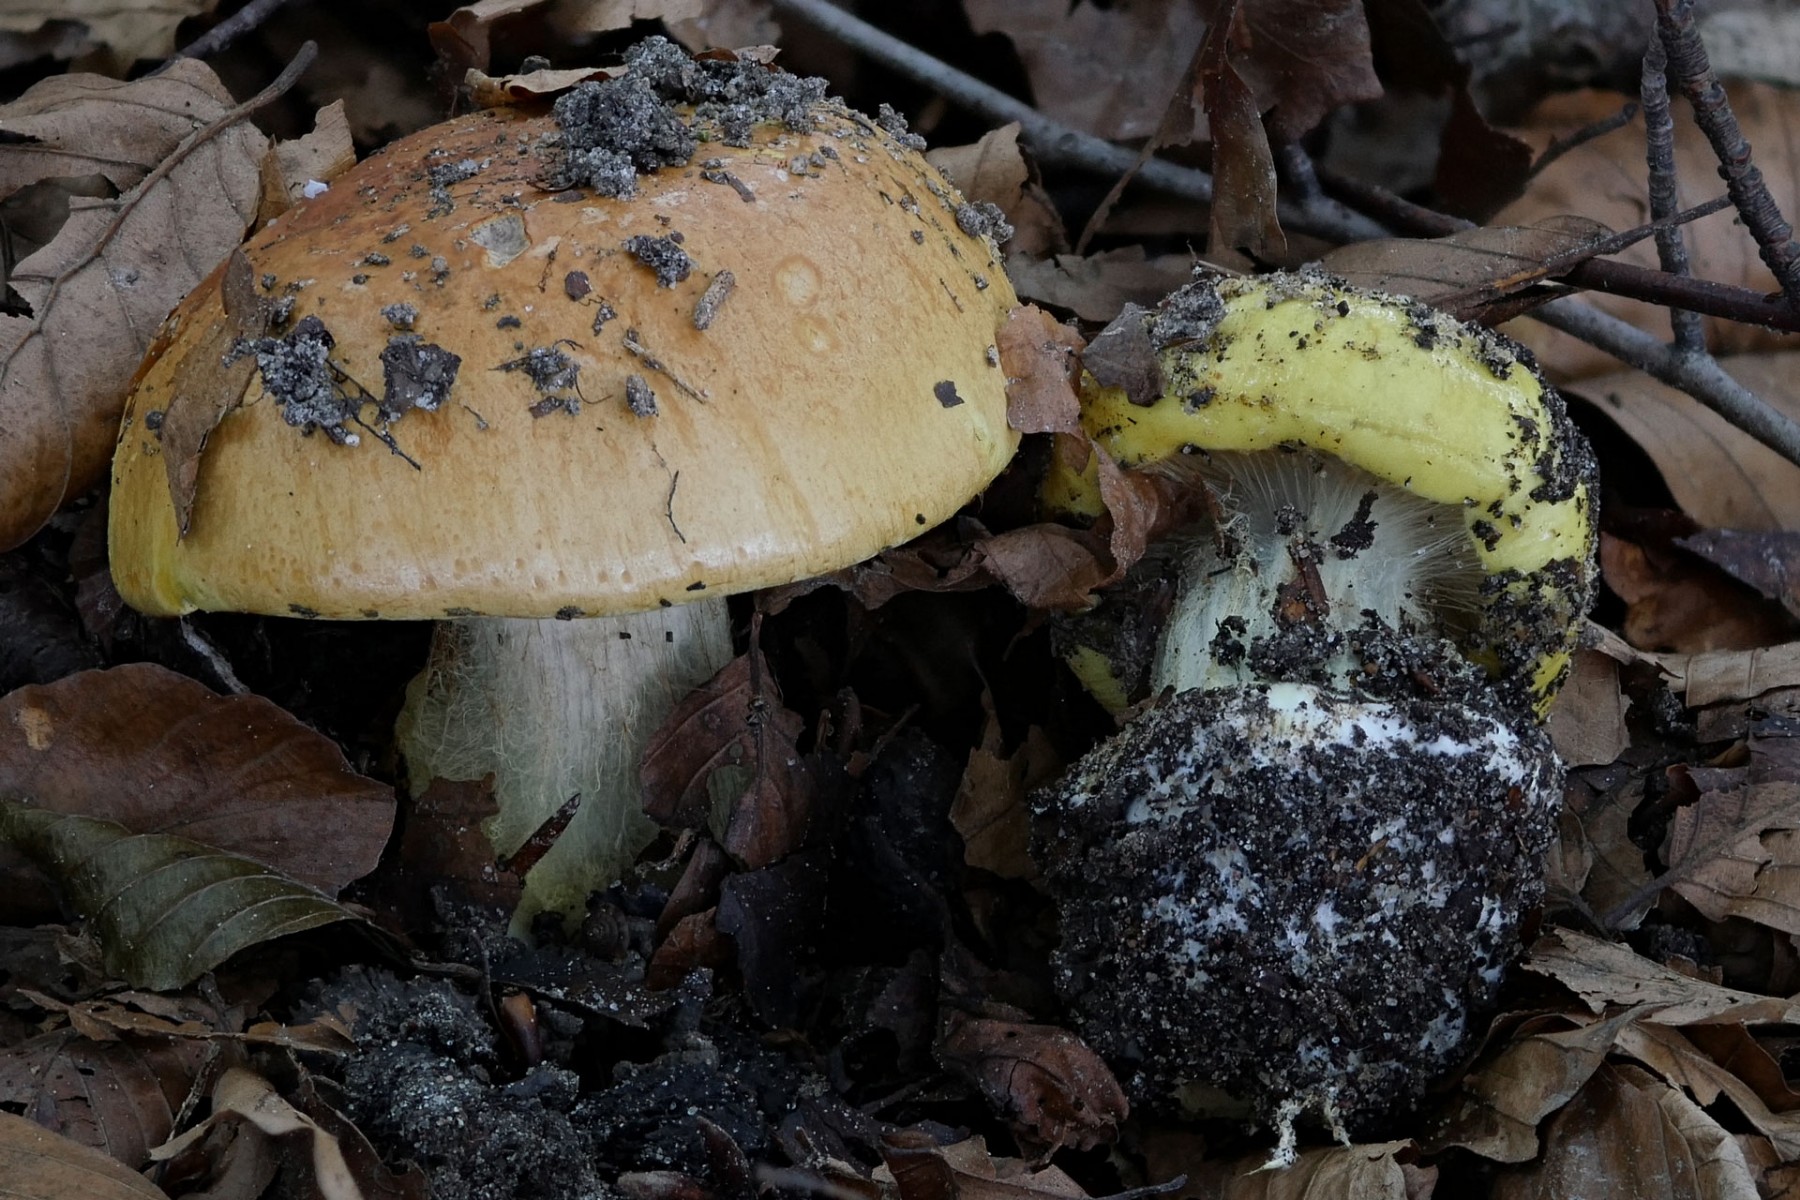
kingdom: Fungi
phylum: Basidiomycota
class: Agaricomycetes
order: Agaricales
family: Cortinariaceae
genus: Calonarius
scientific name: Calonarius elegantissimus
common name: orangegylden slørhat
